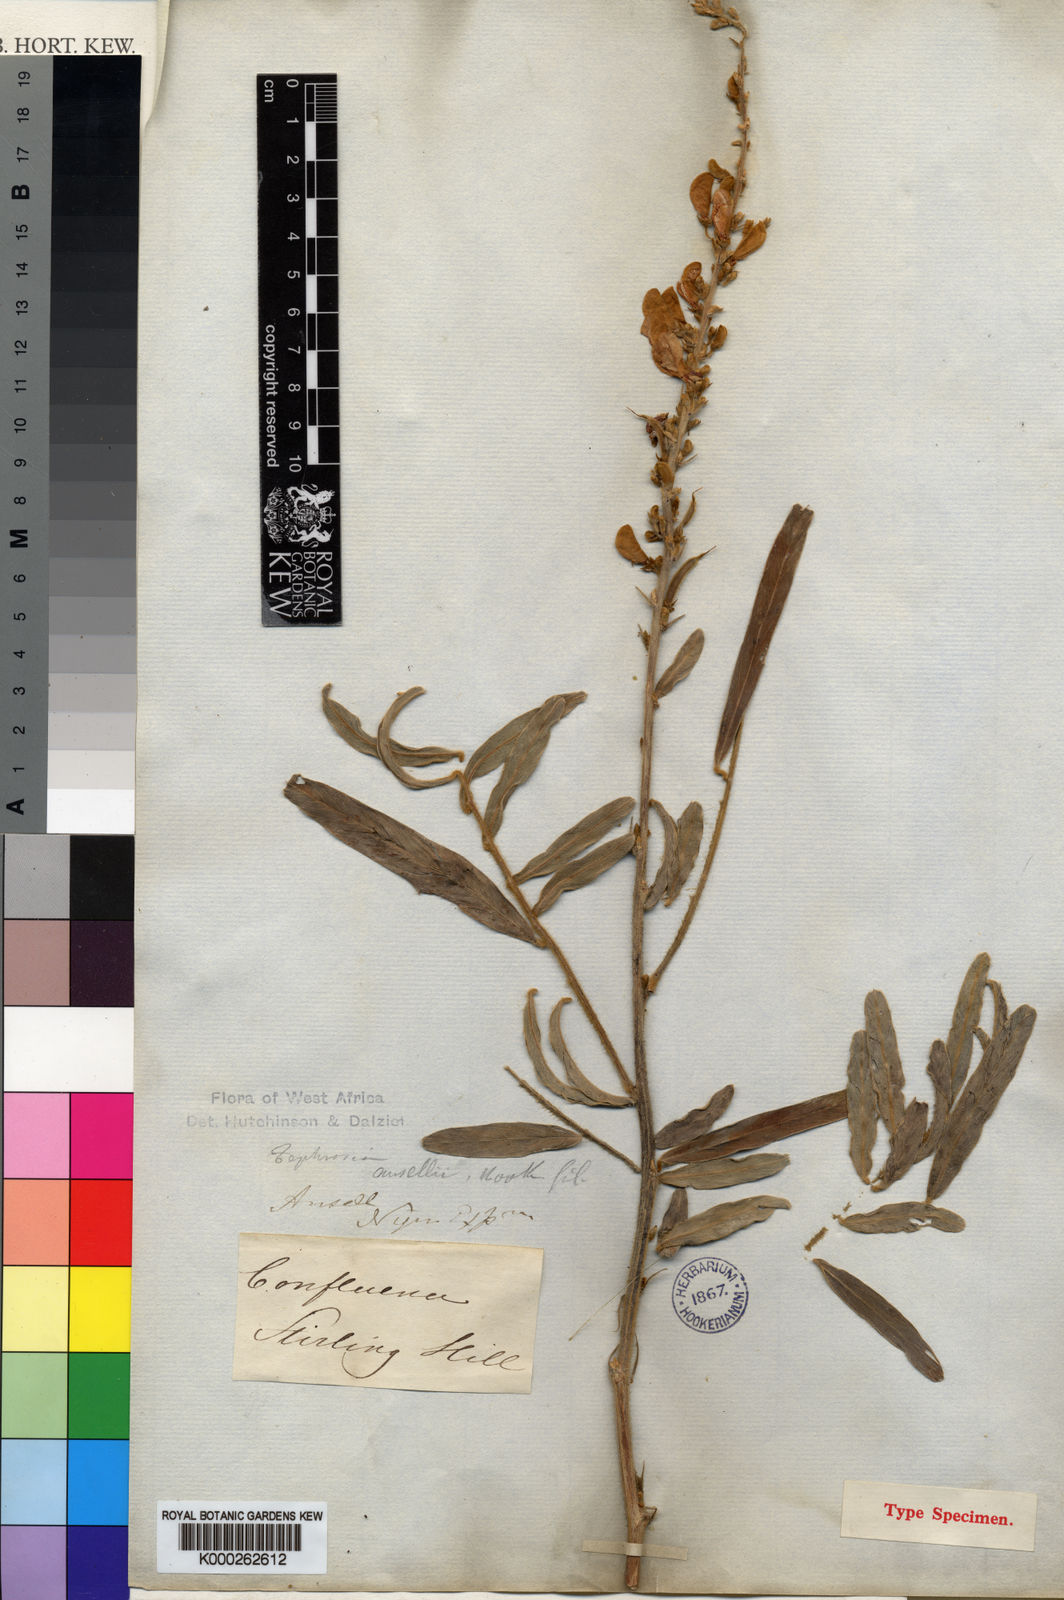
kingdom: Plantae
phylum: Tracheophyta
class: Magnoliopsida
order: Fabales
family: Fabaceae
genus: Tephrosia
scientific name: Tephrosia platycarpa
